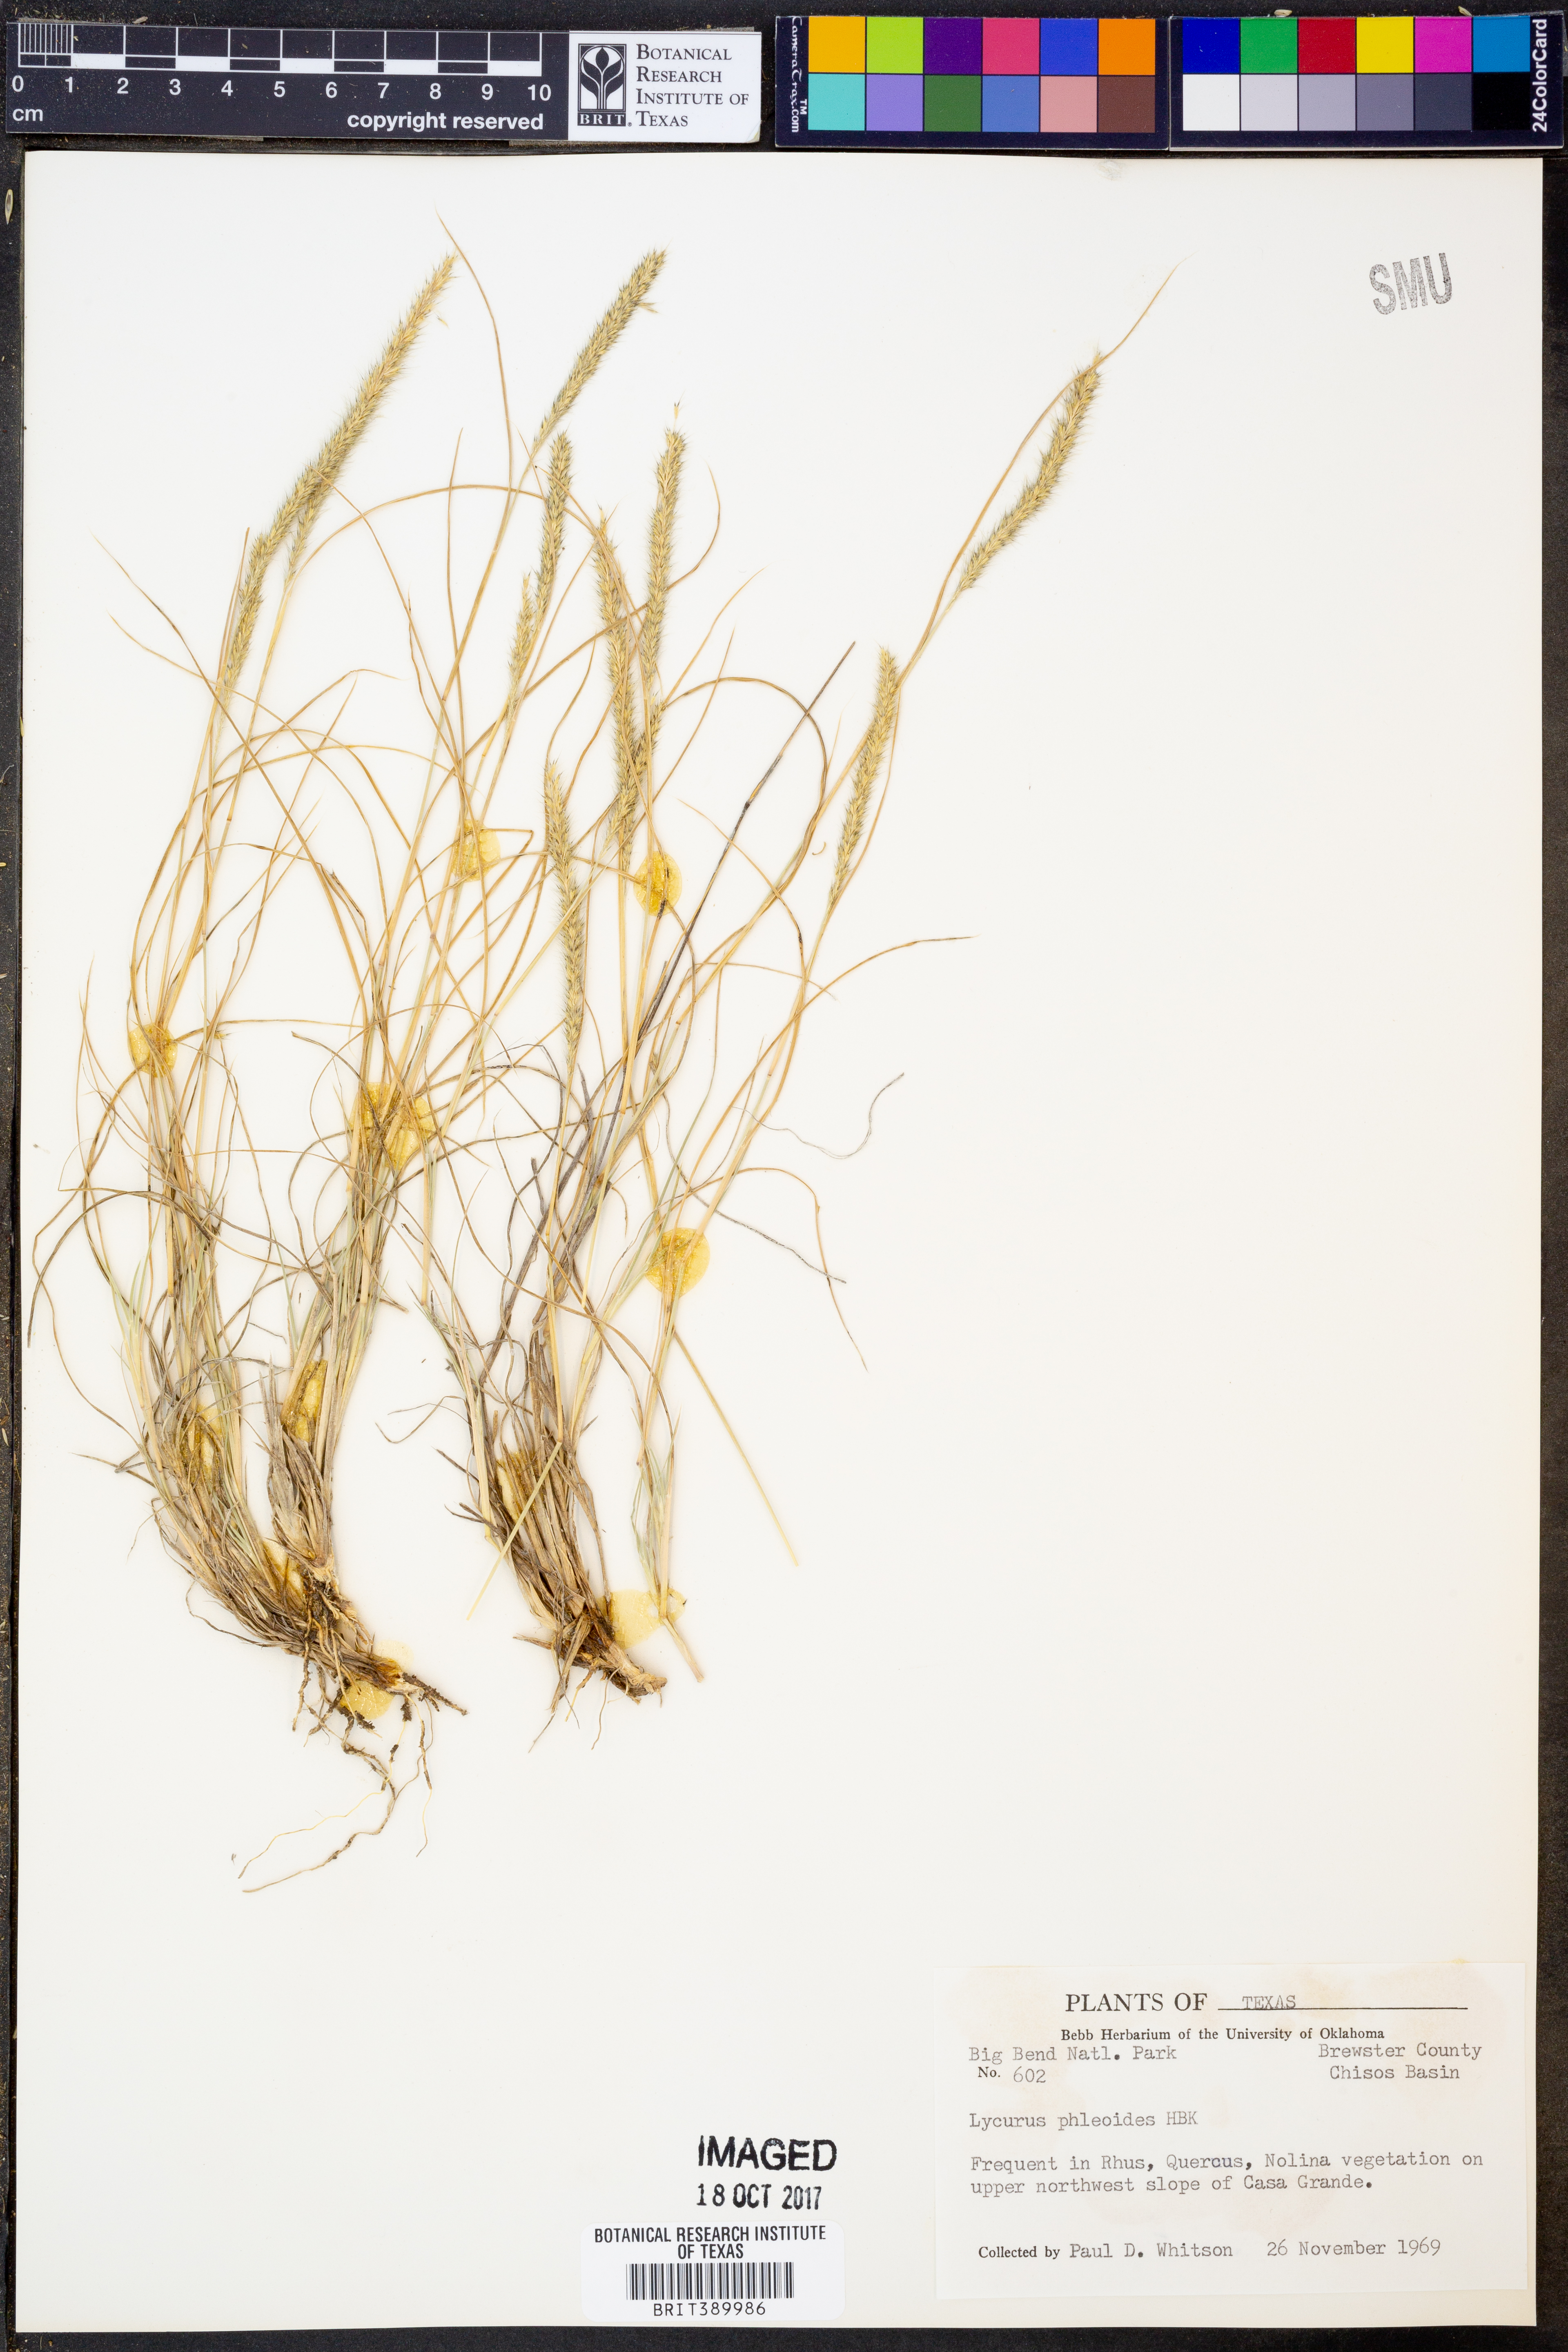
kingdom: Plantae
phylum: Tracheophyta
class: Liliopsida
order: Poales
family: Poaceae
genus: Muhlenbergia
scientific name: Muhlenbergia phleoides
